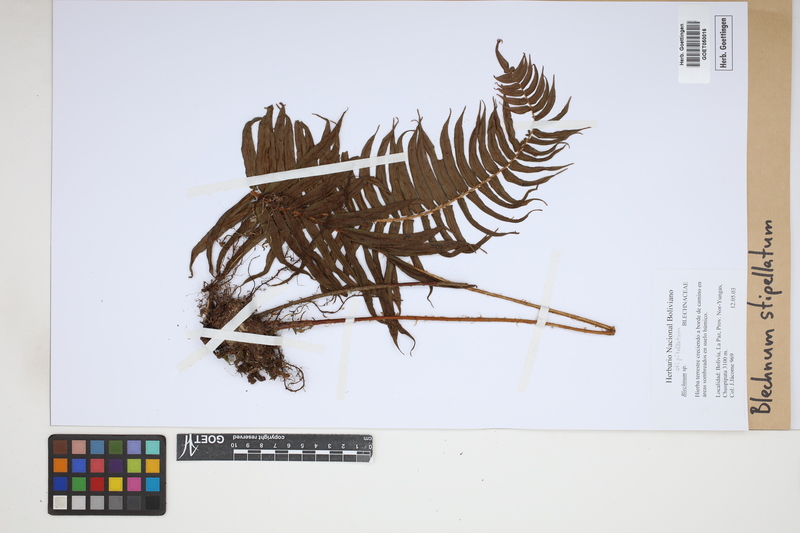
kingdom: Plantae
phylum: Tracheophyta
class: Polypodiopsida
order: Polypodiales
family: Blechnaceae
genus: Parablechnum
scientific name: Parablechnum stipitellatum
